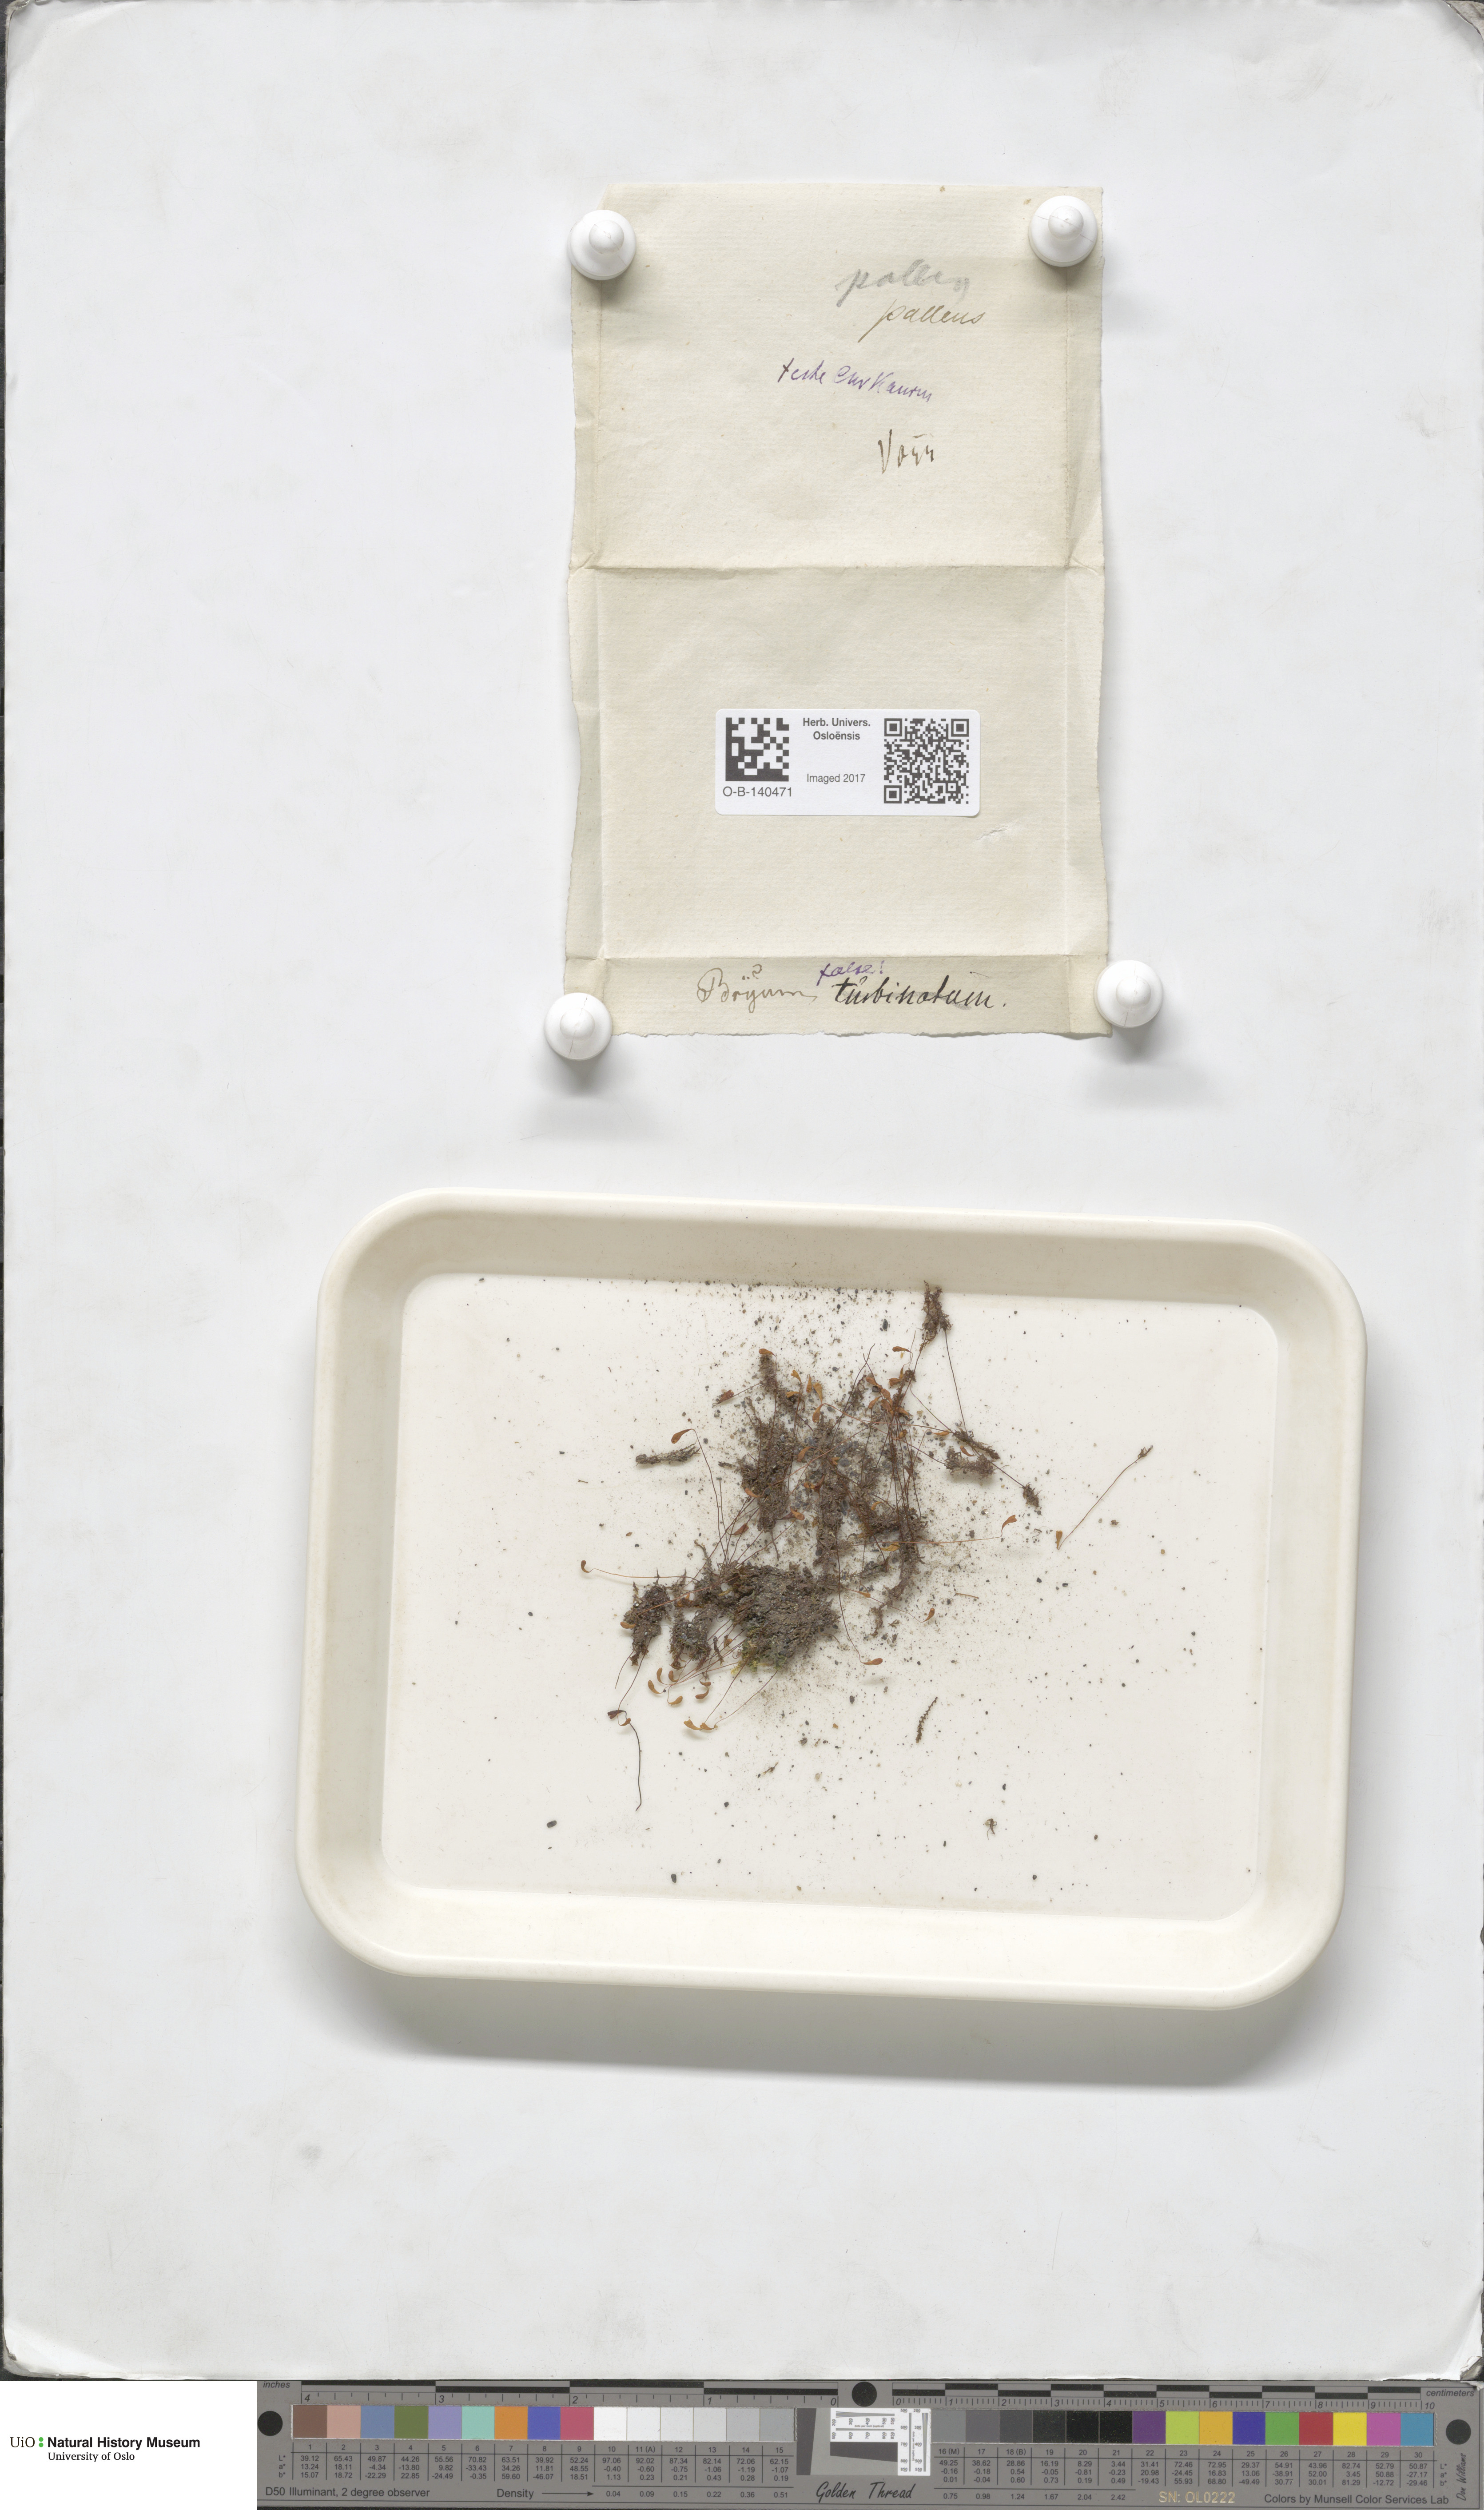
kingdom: Plantae
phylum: Bryophyta
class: Bryopsida
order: Bryales
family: Bryaceae
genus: Ptychostomum
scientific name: Ptychostomum pallens
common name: Pale thread-moss
